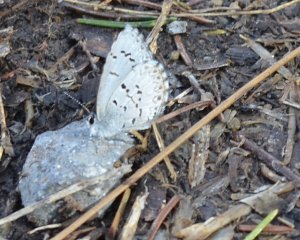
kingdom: Animalia
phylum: Arthropoda
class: Insecta
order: Lepidoptera
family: Lycaenidae
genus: Celastrina
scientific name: Celastrina lucia
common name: Northern Spring Azure
